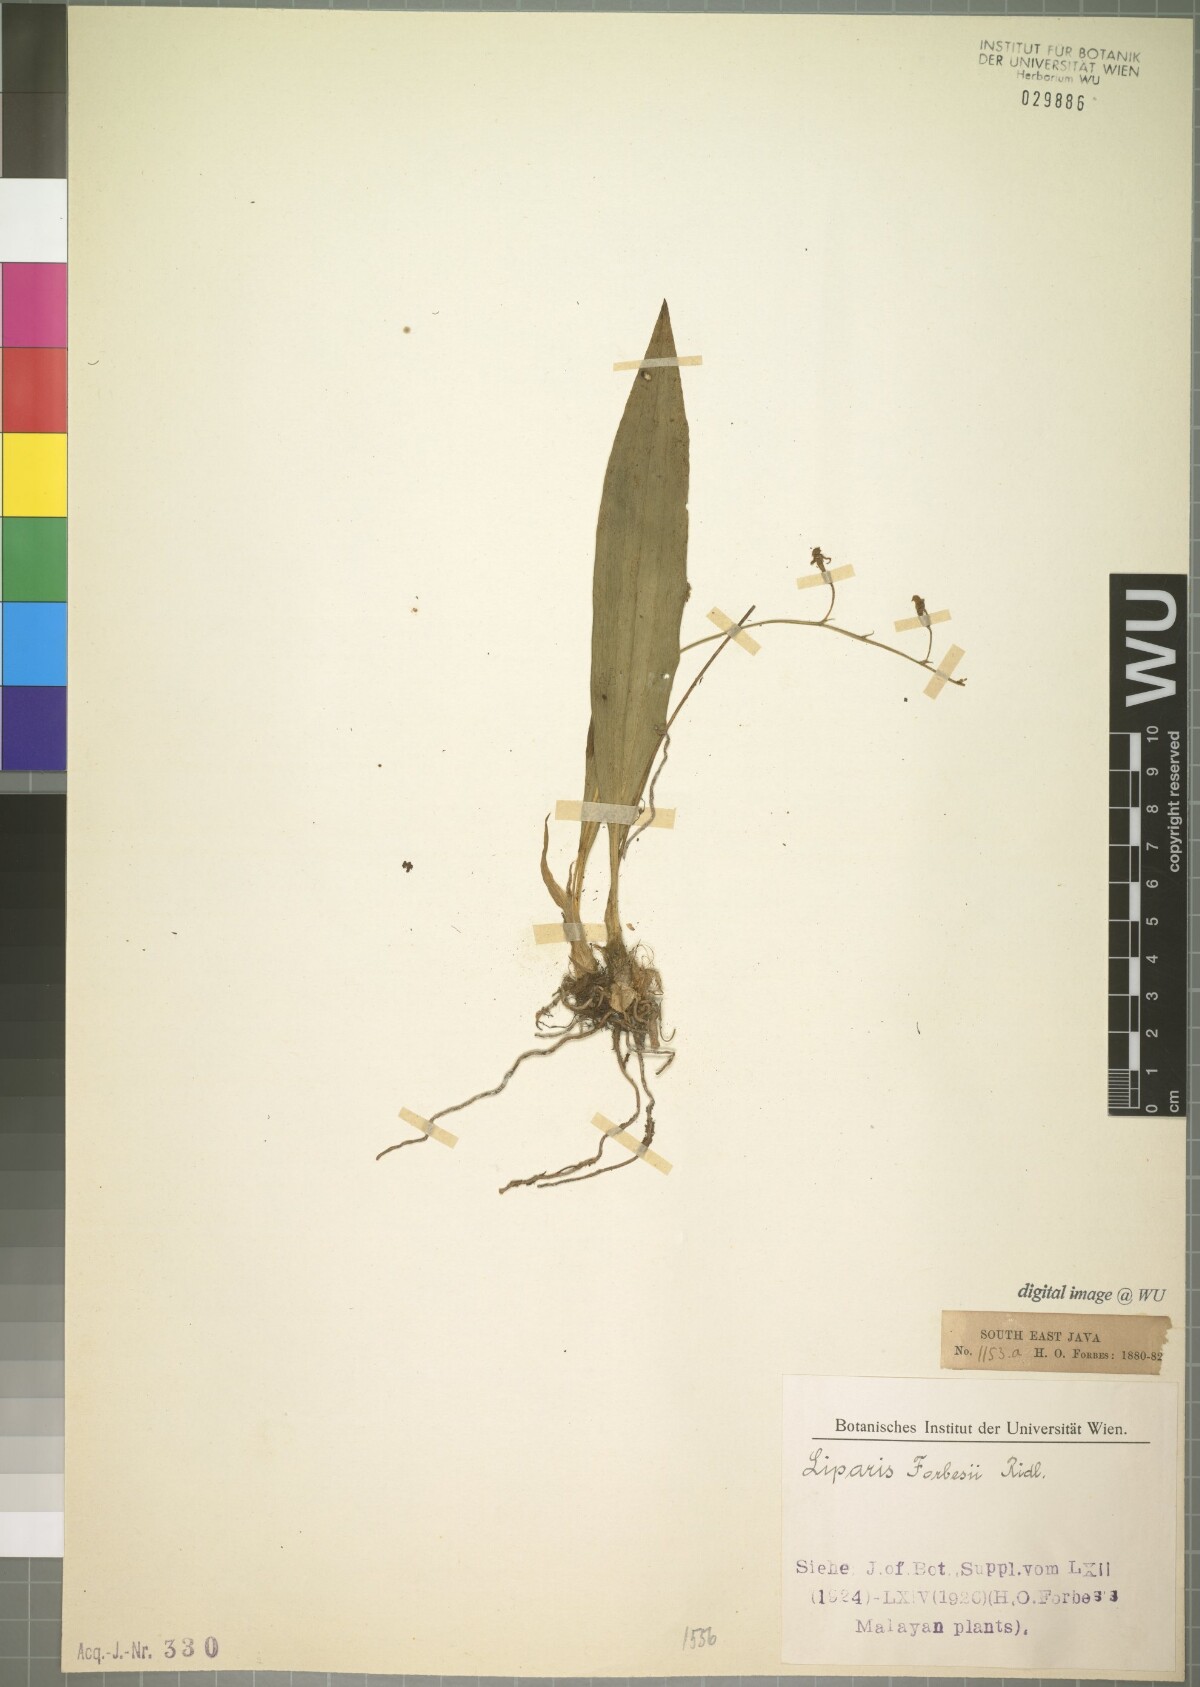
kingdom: Plantae
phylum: Tracheophyta
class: Liliopsida
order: Asparagales
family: Orchidaceae
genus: Liparis
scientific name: Liparis bootanensis
